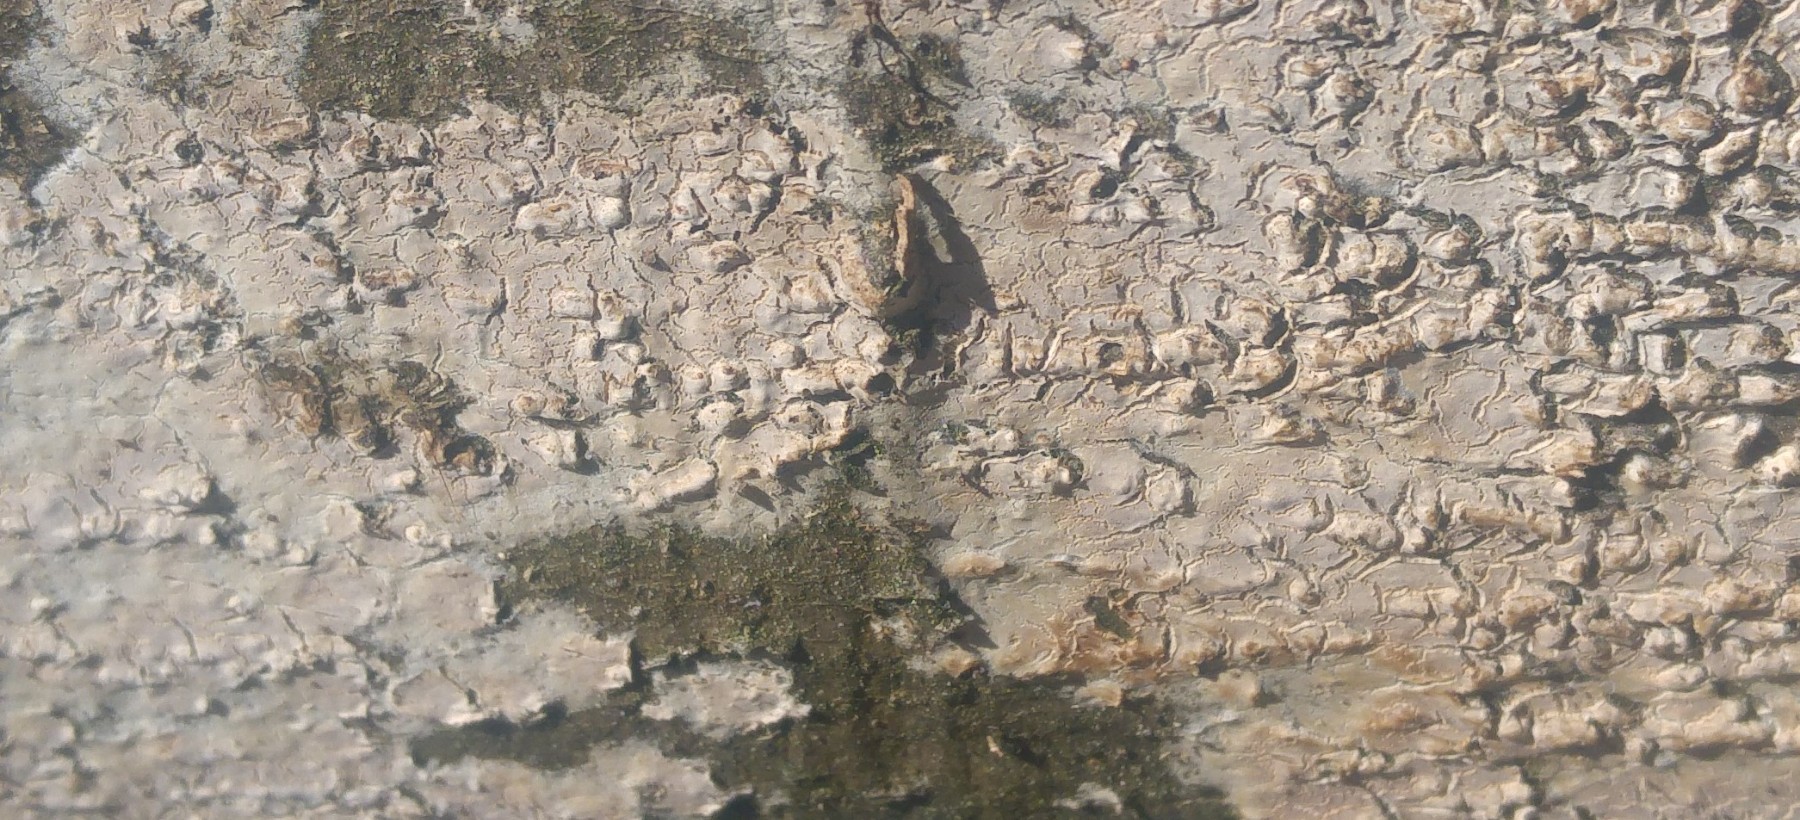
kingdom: Fungi
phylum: Basidiomycota
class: Agaricomycetes
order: Agaricales
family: Physalacriaceae
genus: Cylindrobasidium
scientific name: Cylindrobasidium evolvens
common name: sprækkehinde
